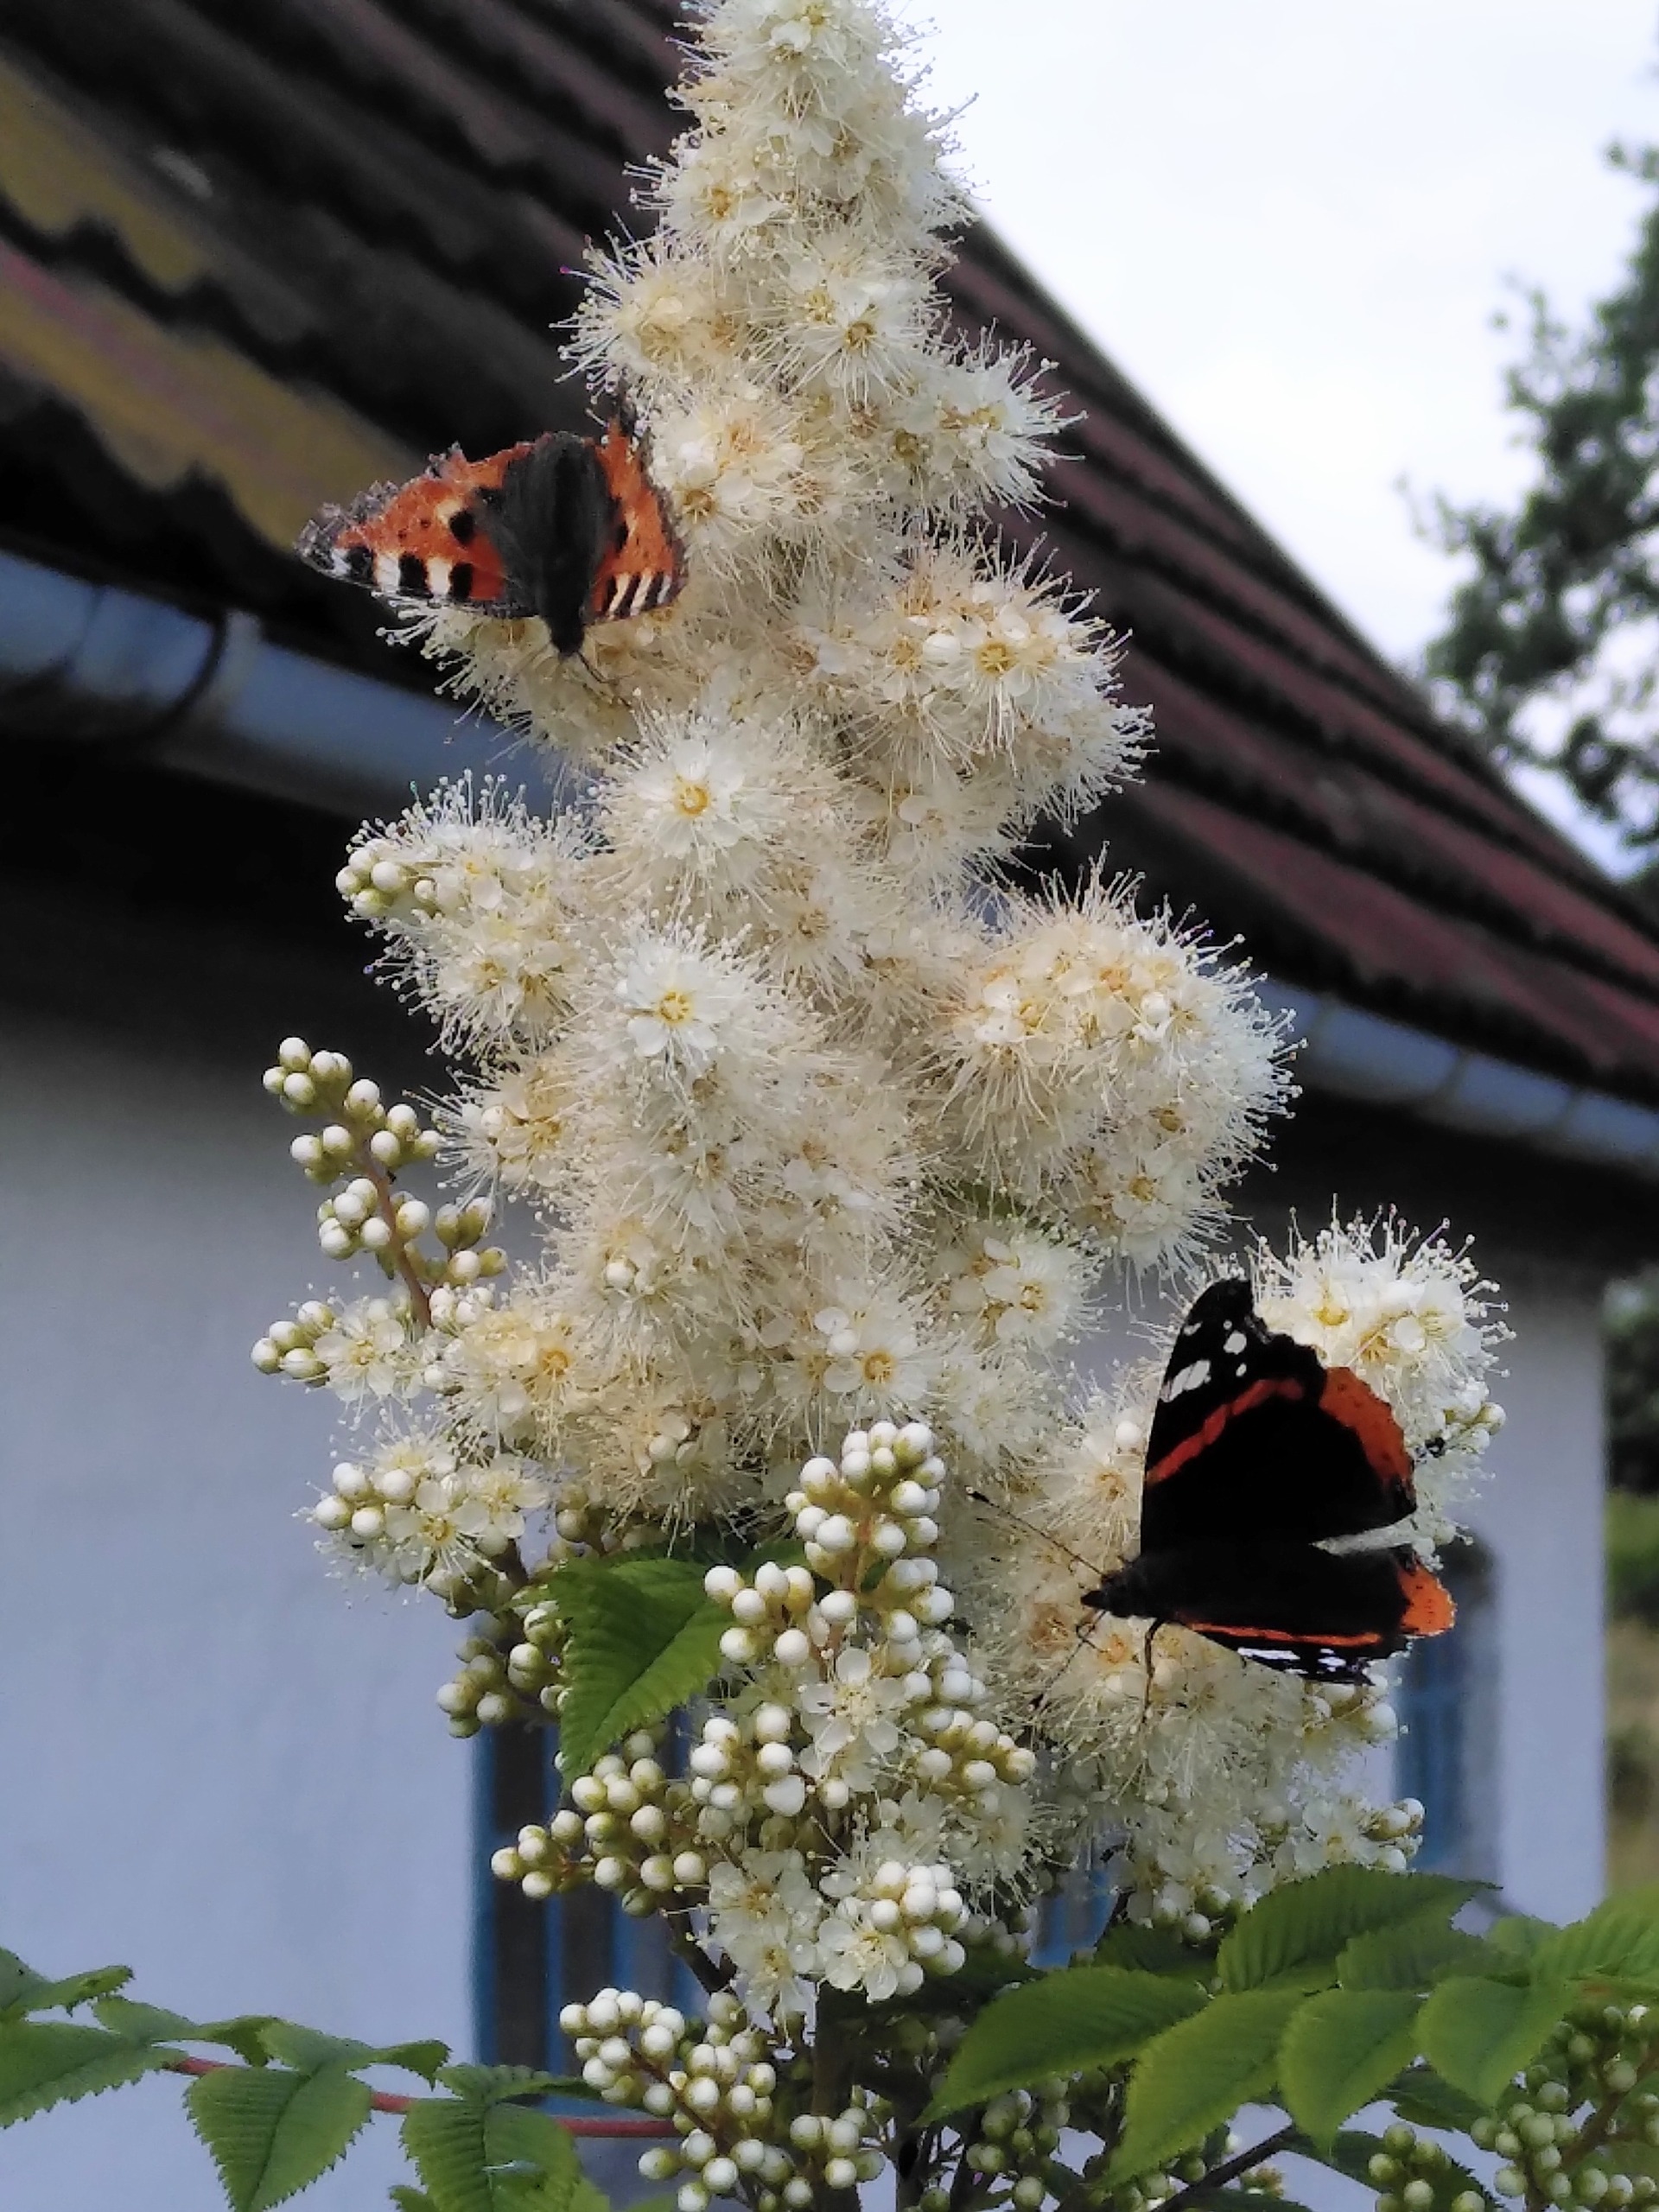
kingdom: Animalia
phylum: Arthropoda
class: Insecta
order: Lepidoptera
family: Nymphalidae
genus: Aglais
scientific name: Aglais urticae
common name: Nældens takvinge
